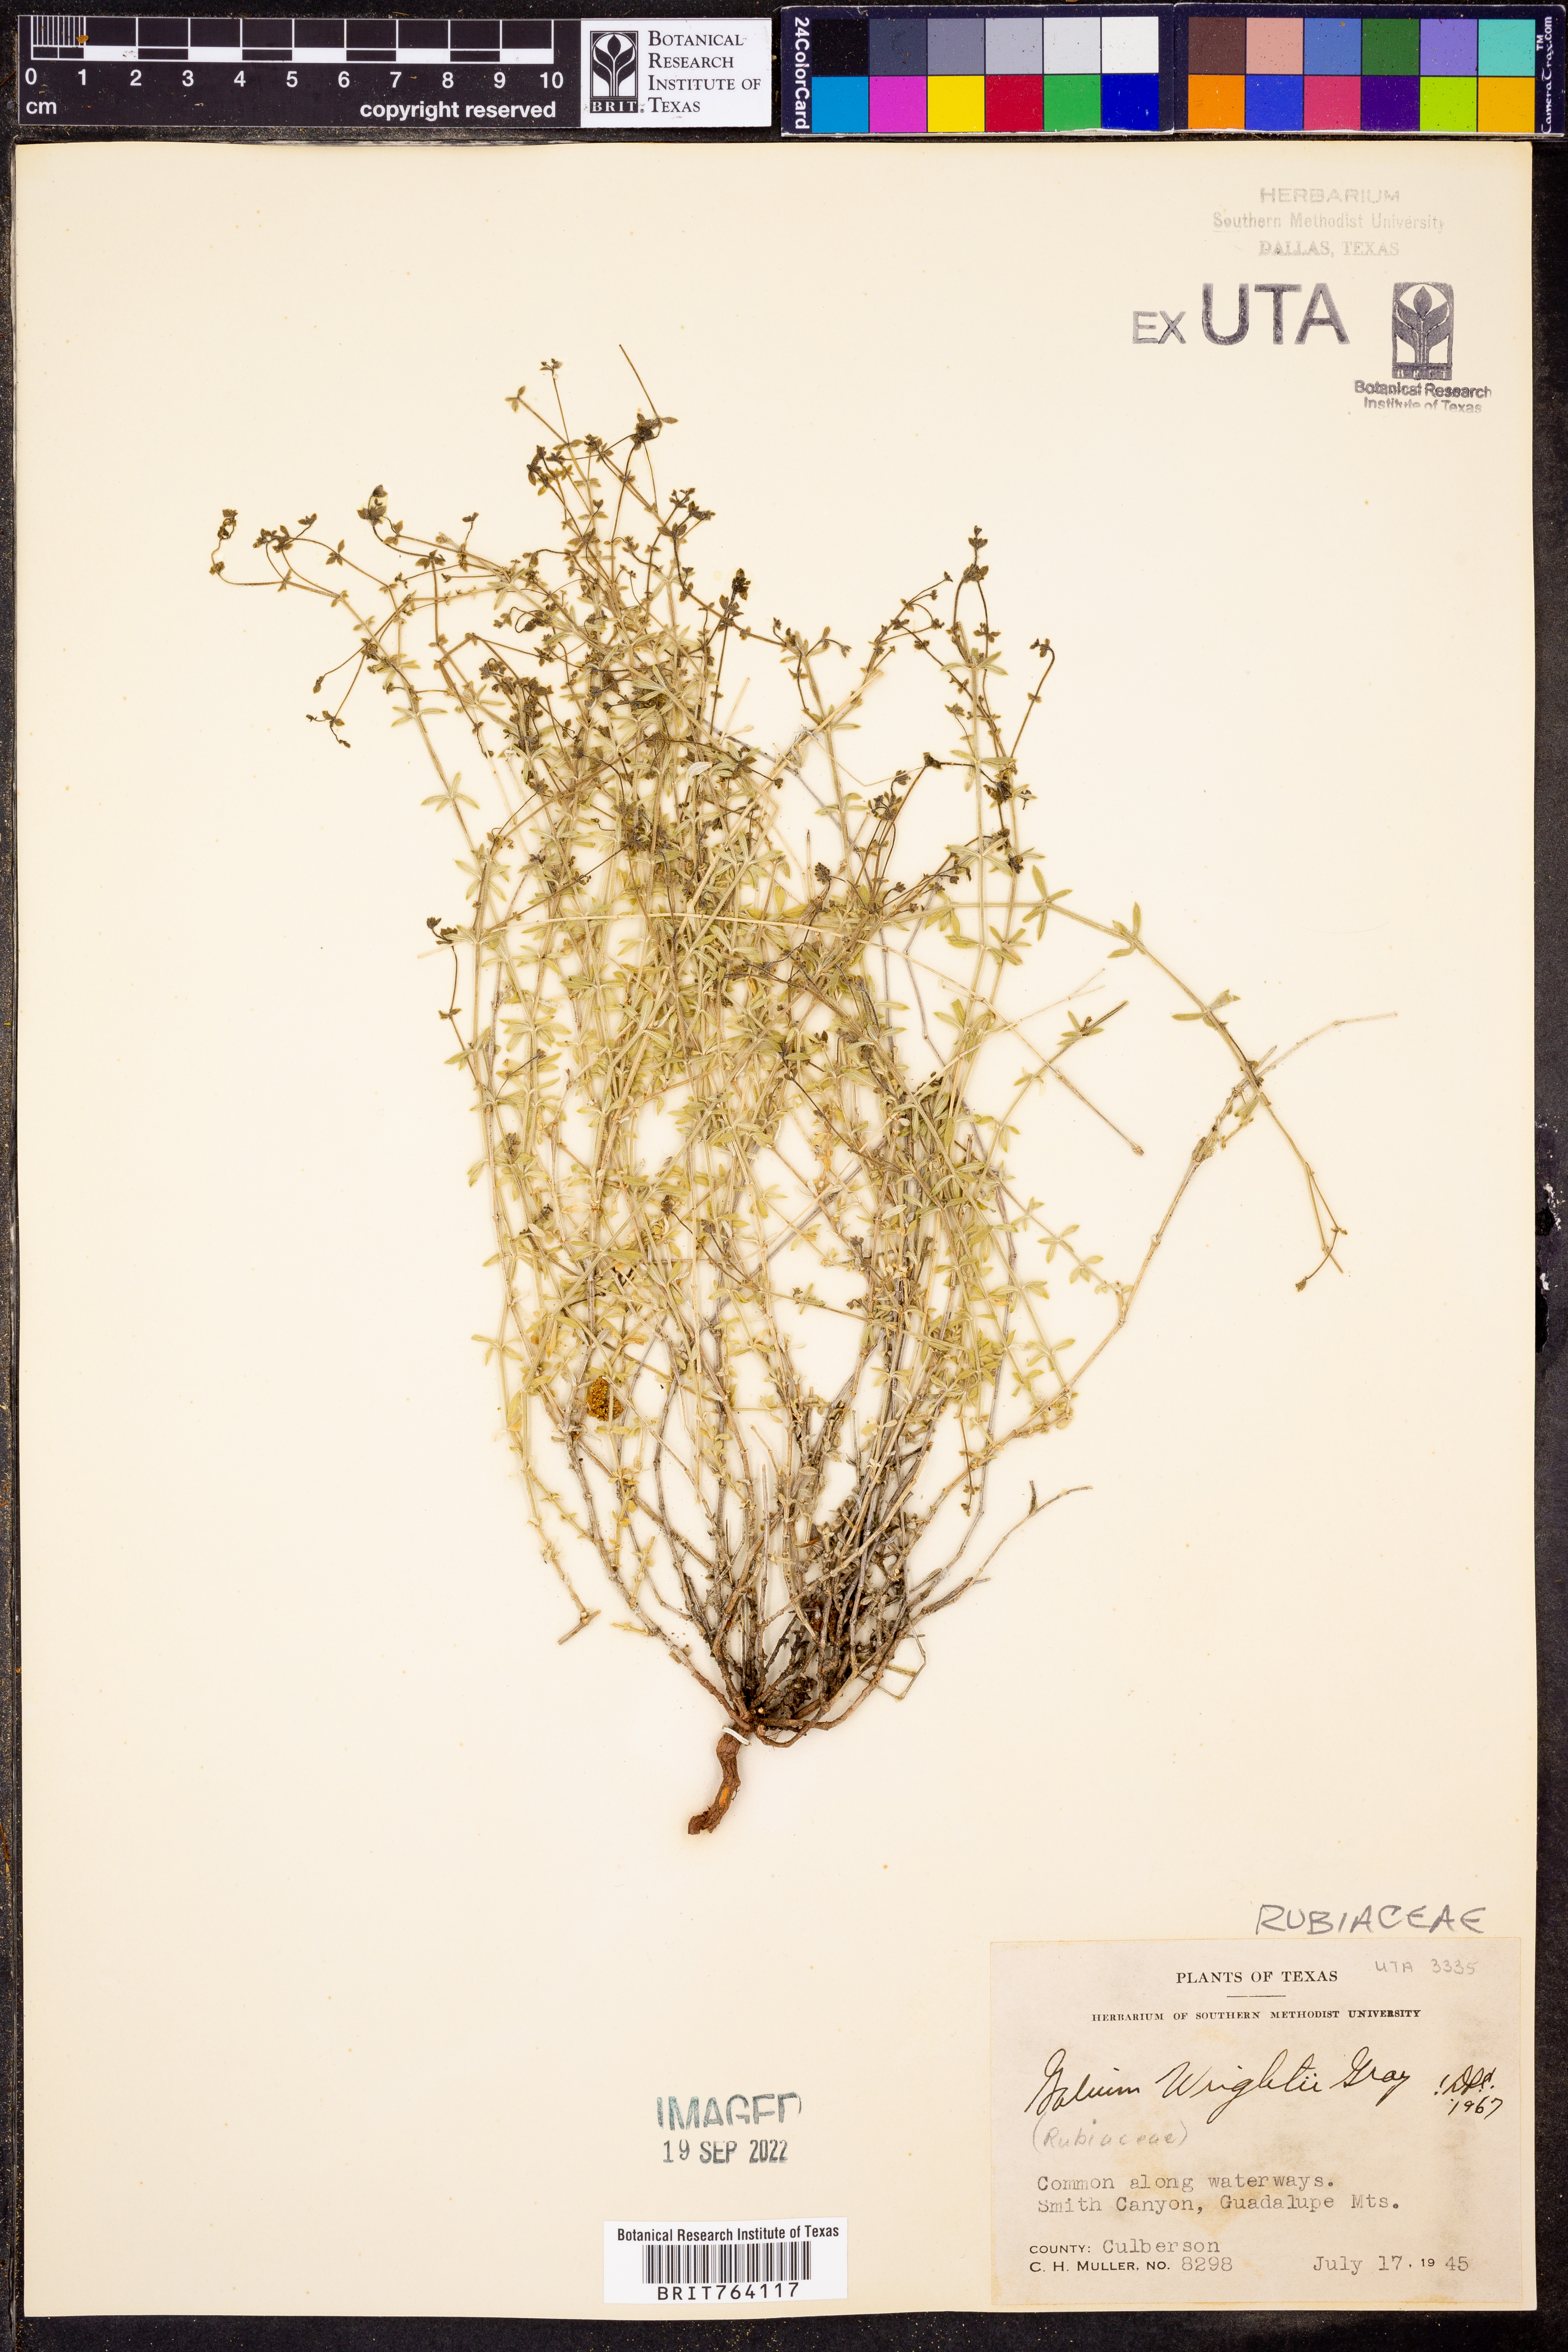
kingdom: Plantae
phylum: Tracheophyta
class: Magnoliopsida
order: Gentianales
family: Rubiaceae
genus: Galium
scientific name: Galium wrightii
